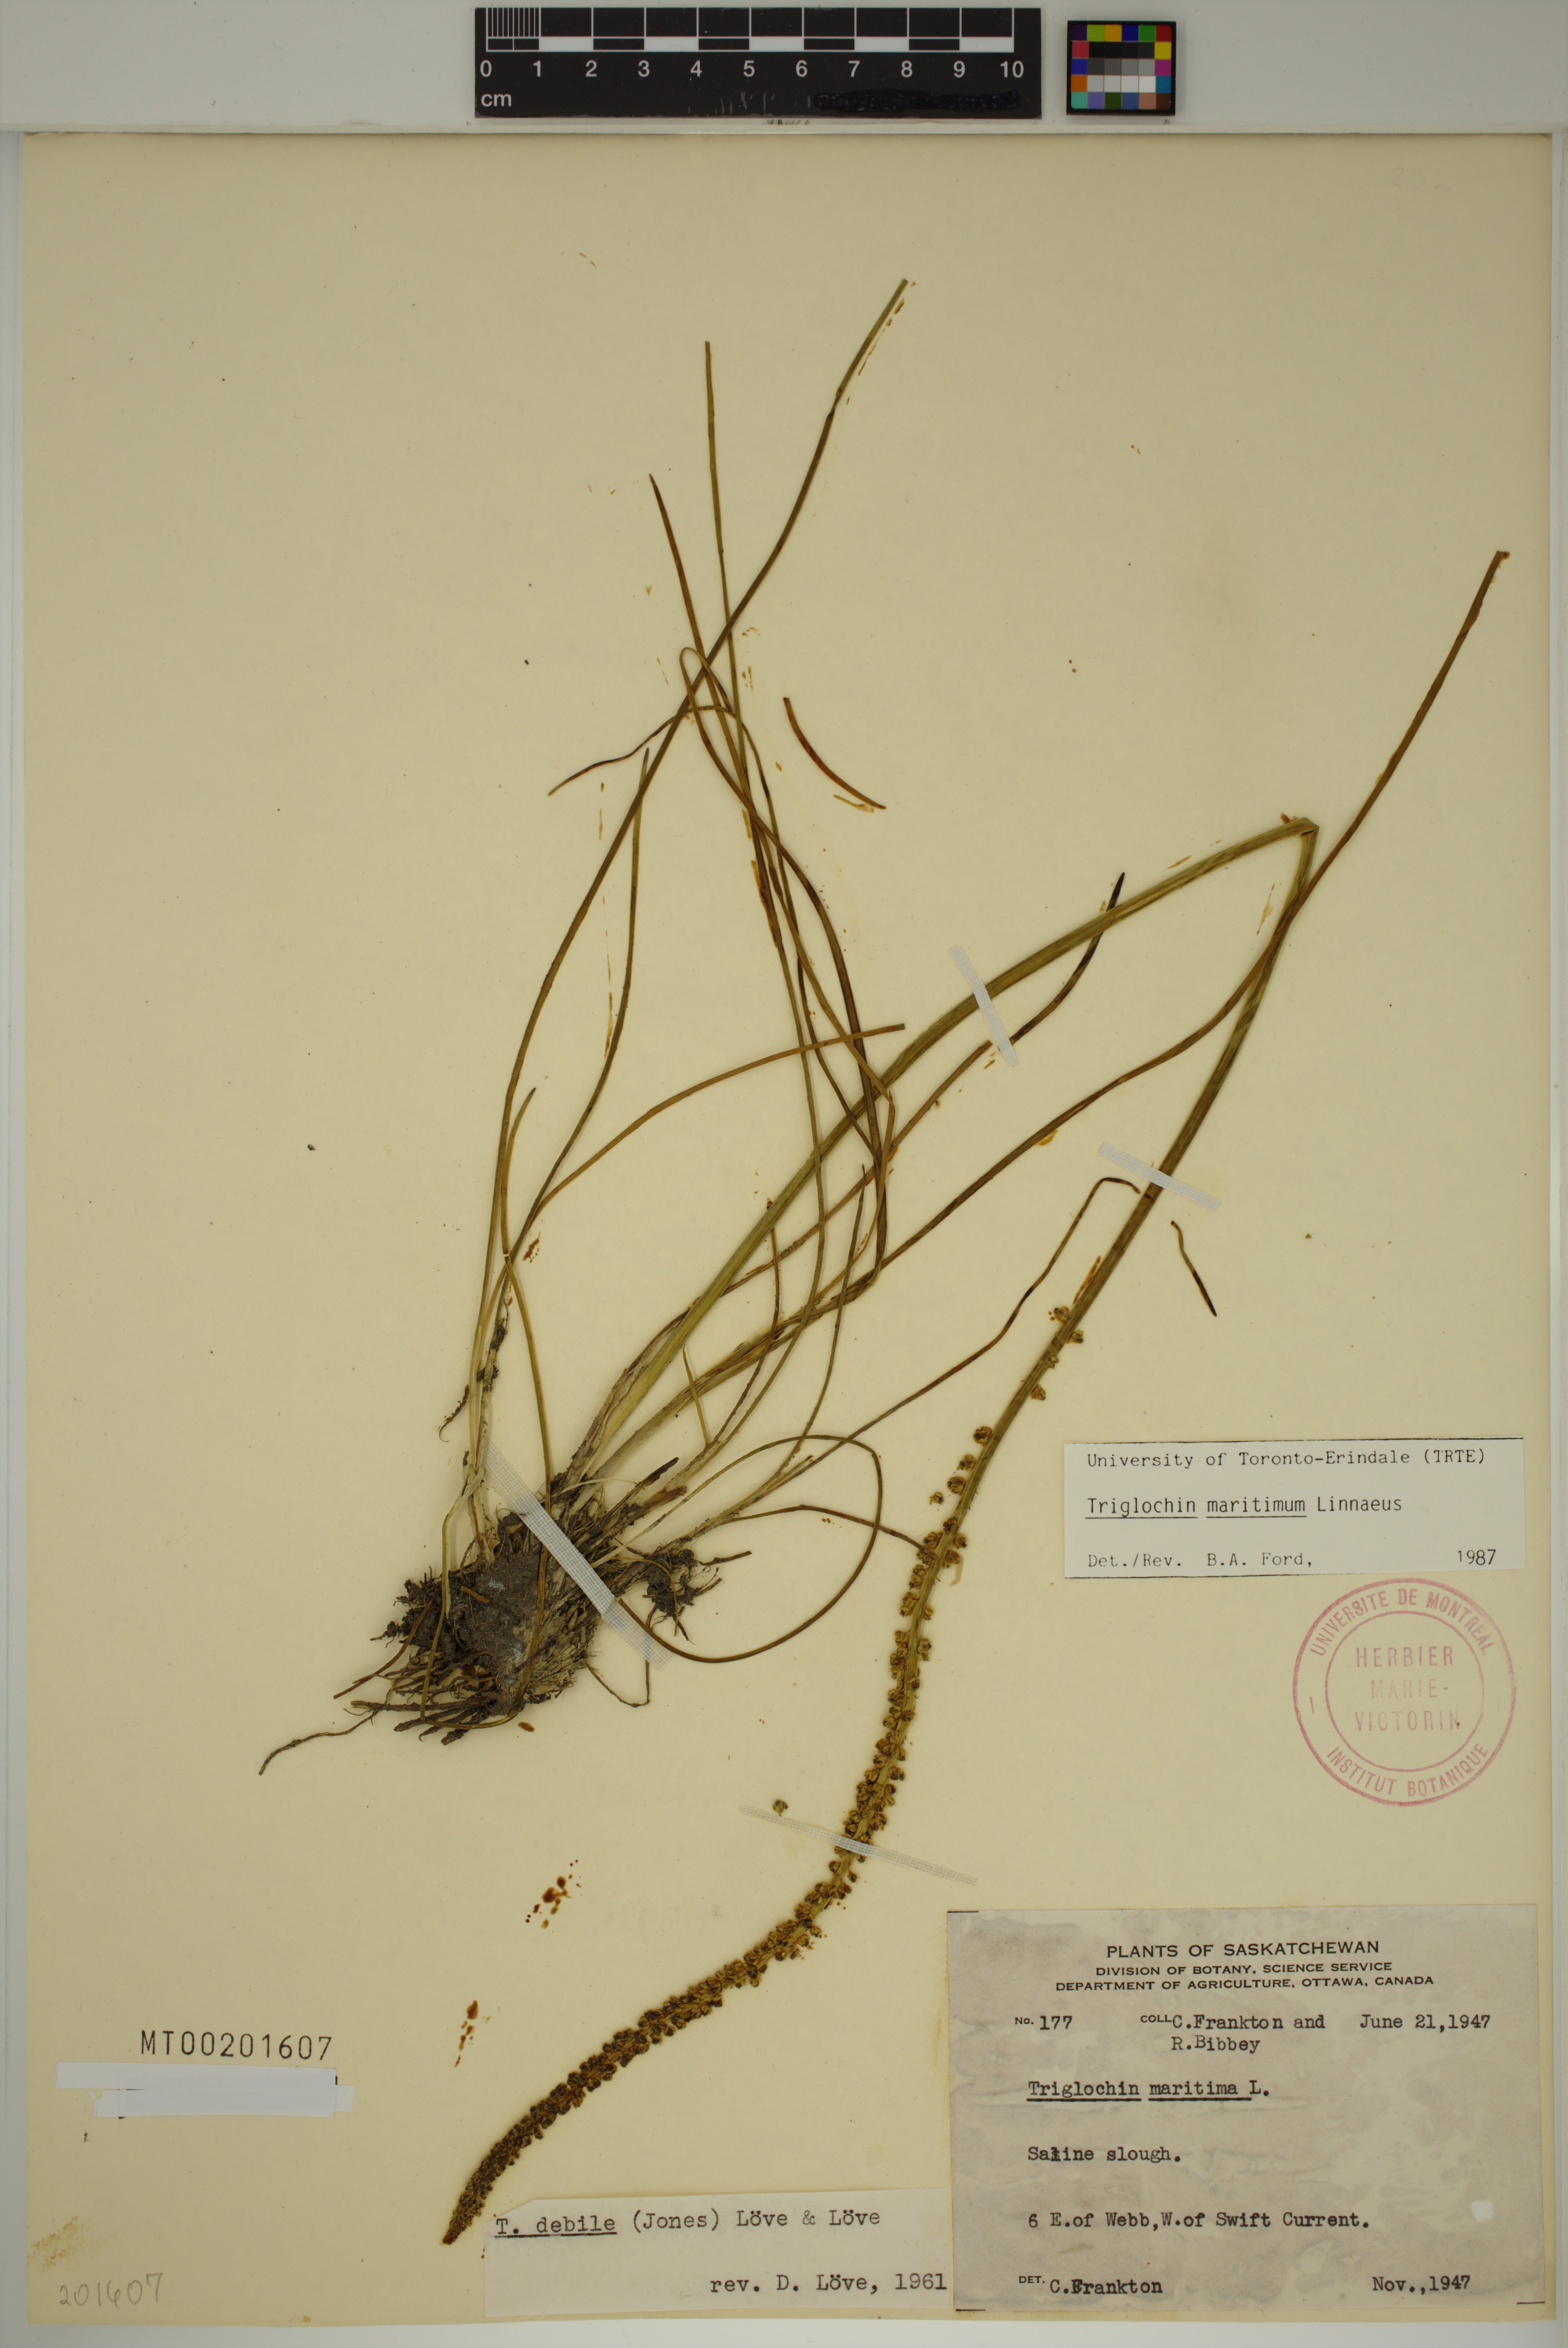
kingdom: Plantae
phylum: Tracheophyta
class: Liliopsida
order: Alismatales
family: Juncaginaceae
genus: Triglochin
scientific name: Triglochin maritima
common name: Sea arrowgrass
